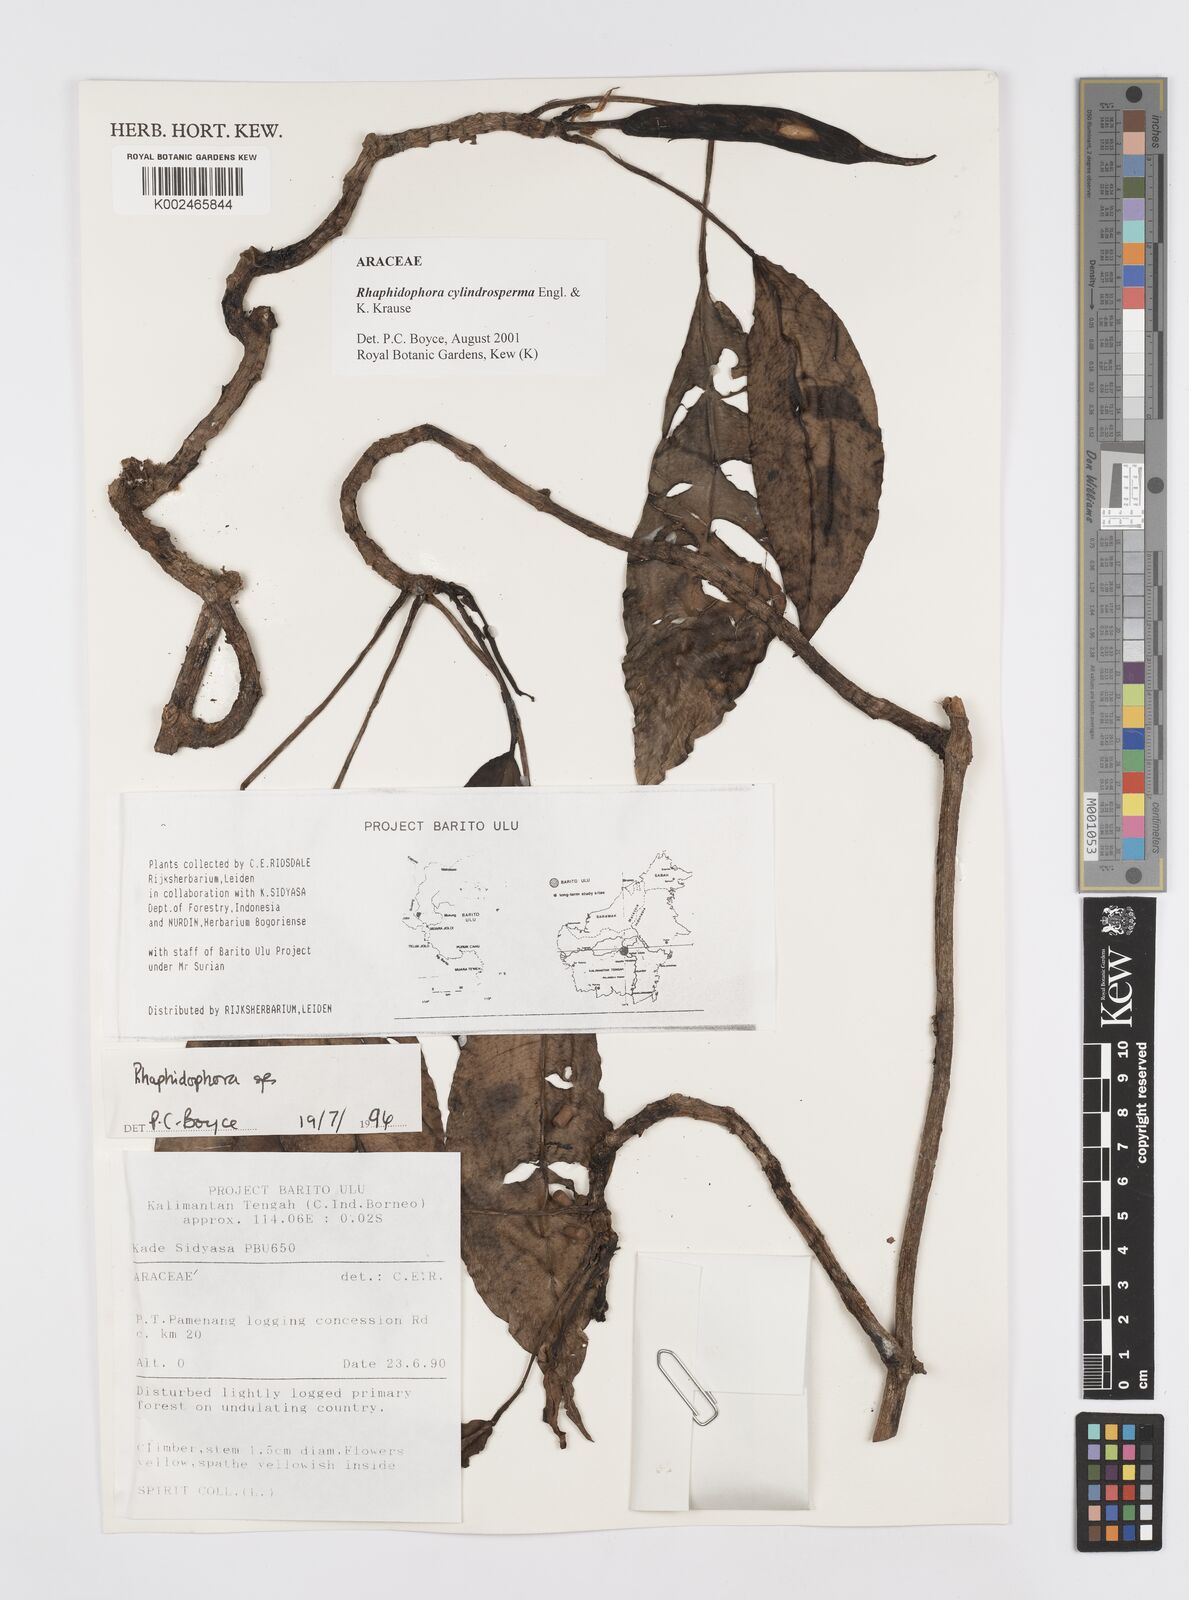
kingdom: Plantae
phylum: Tracheophyta
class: Liliopsida
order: Alismatales
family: Araceae
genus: Rhaphidophora
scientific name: Rhaphidophora cylindrosperma
